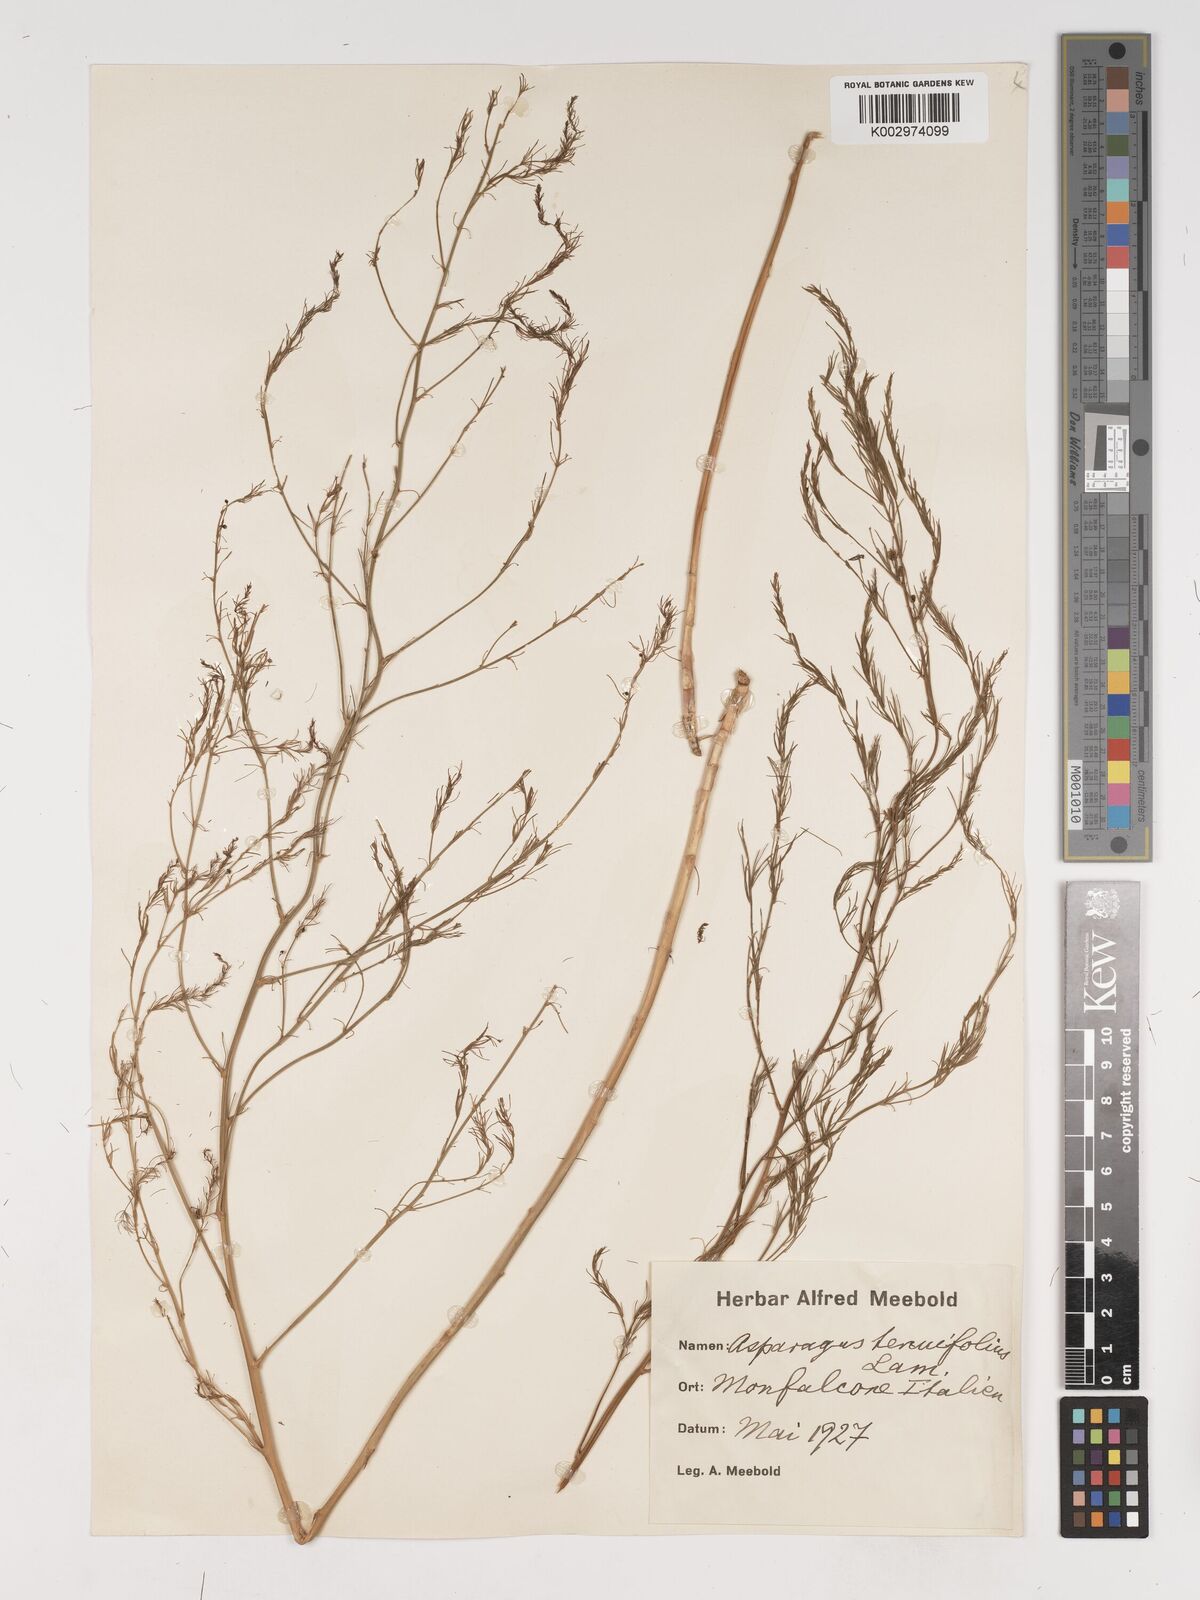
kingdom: Plantae
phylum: Tracheophyta
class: Liliopsida
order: Asparagales
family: Asparagaceae
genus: Asparagus
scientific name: Asparagus tenuifolius
